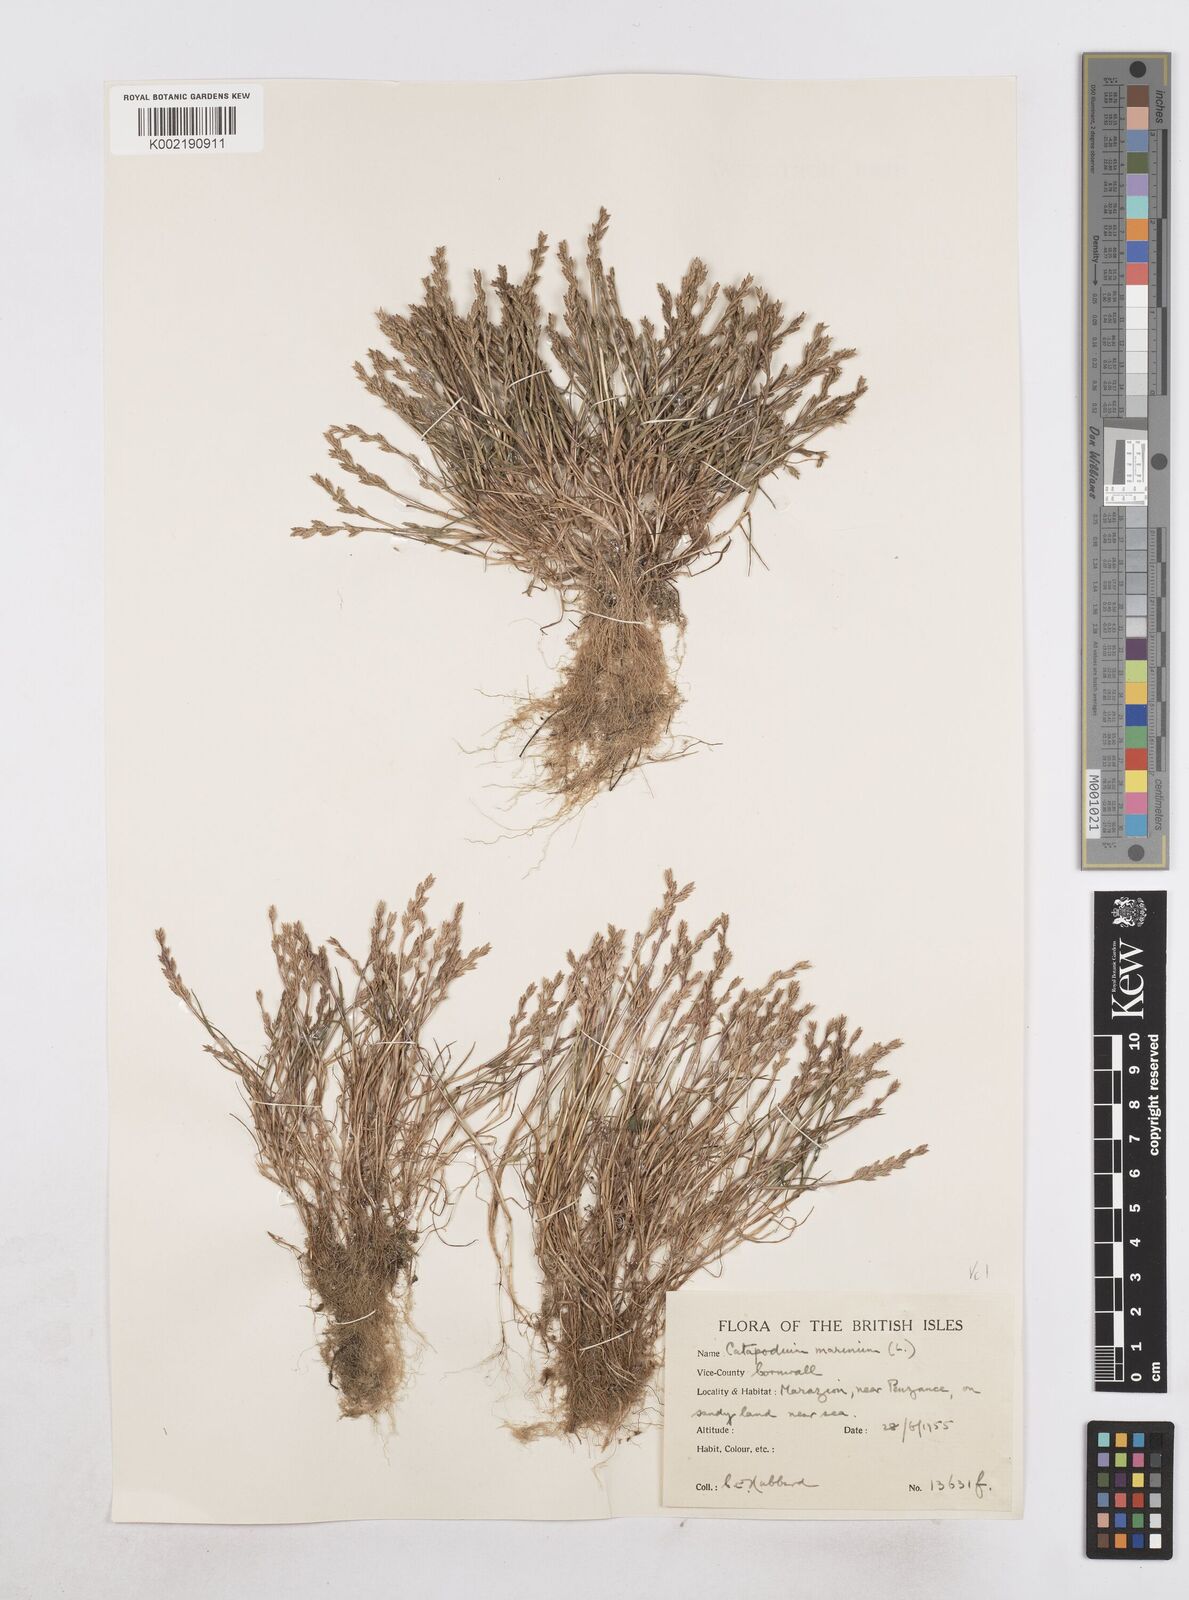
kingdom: Plantae
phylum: Tracheophyta
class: Liliopsida
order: Poales
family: Poaceae
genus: Catapodium
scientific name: Catapodium marinum
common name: Sea fern-grass
